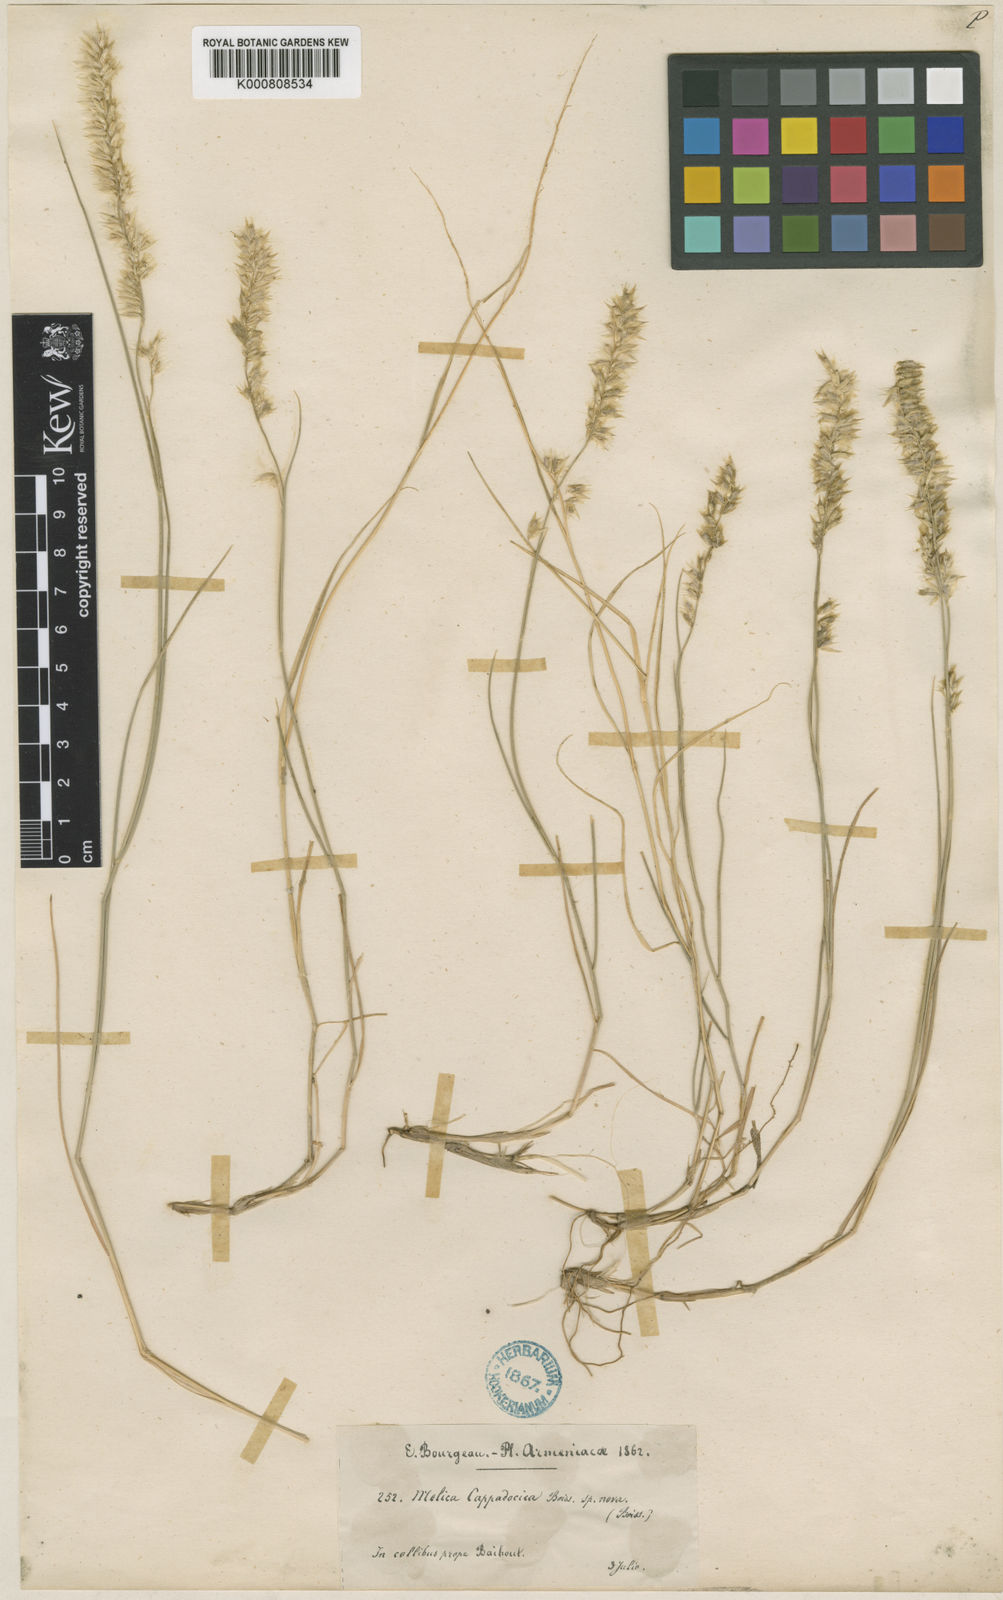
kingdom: Plantae
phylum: Tracheophyta
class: Liliopsida
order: Poales
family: Poaceae
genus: Melica
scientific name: Melica ciliata
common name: Hairy melicgrass
